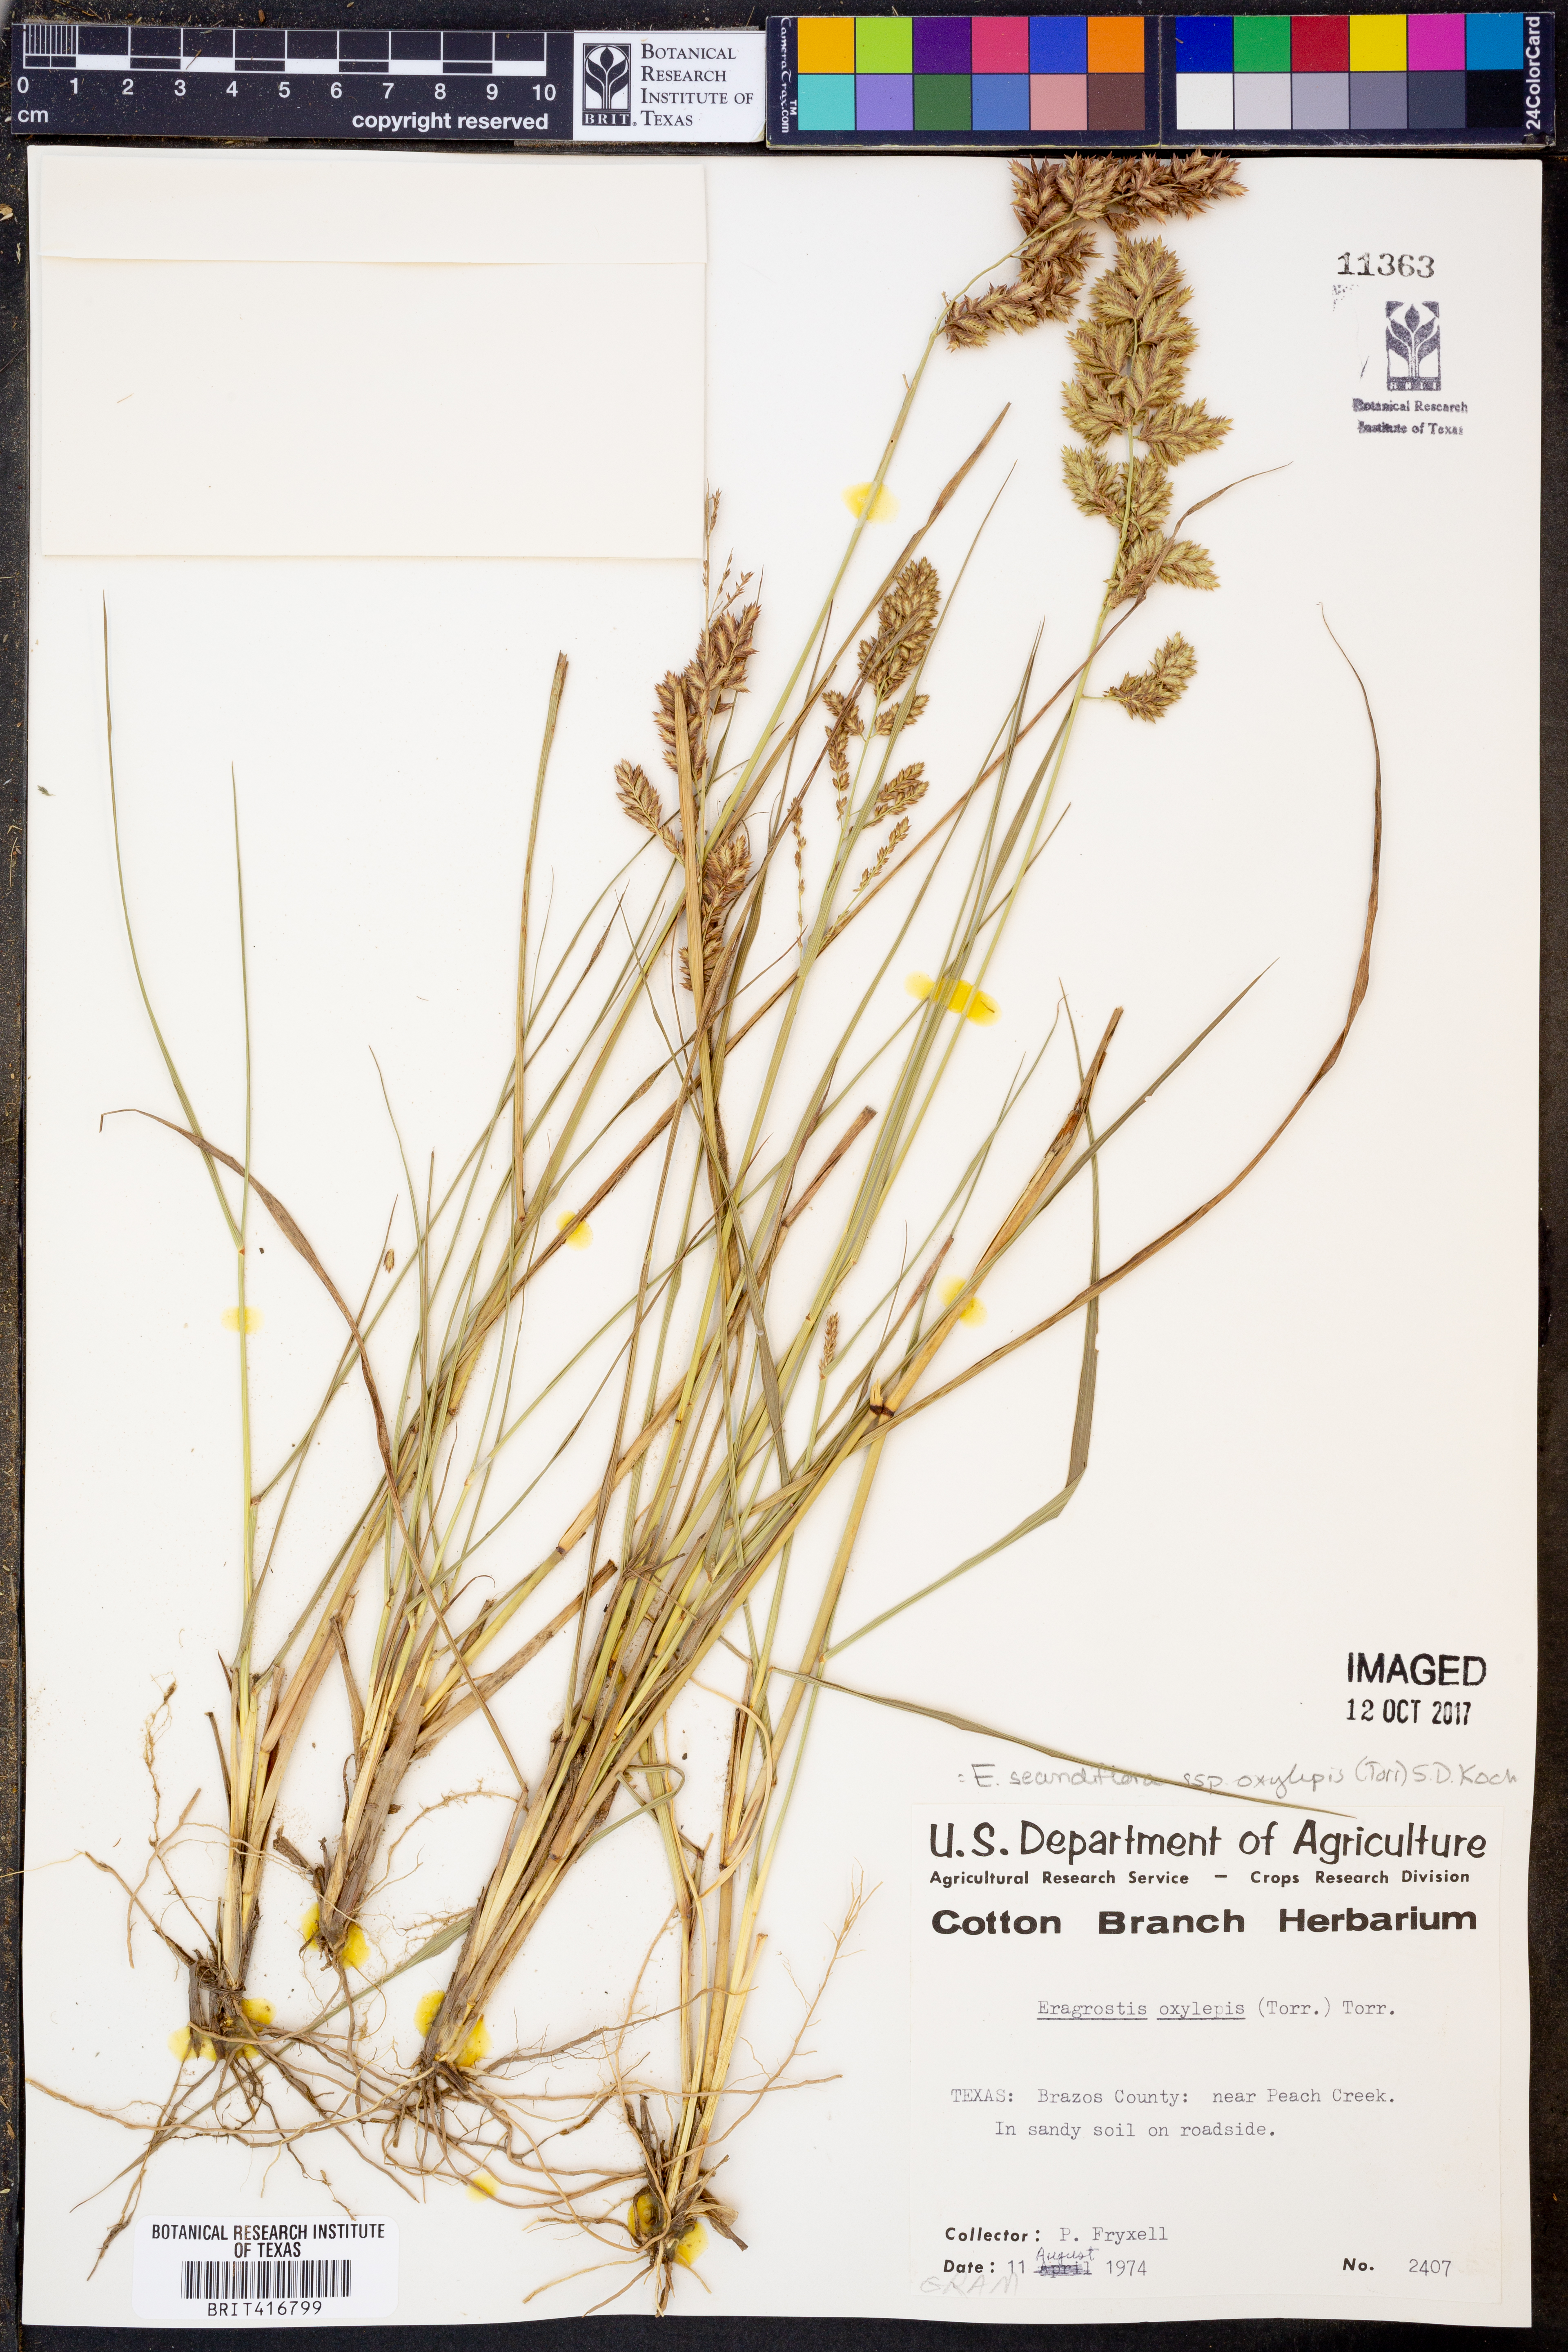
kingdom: Plantae
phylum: Tracheophyta
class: Liliopsida
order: Poales
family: Poaceae
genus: Eragrostis
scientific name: Eragrostis secundiflora
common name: Red love grass
